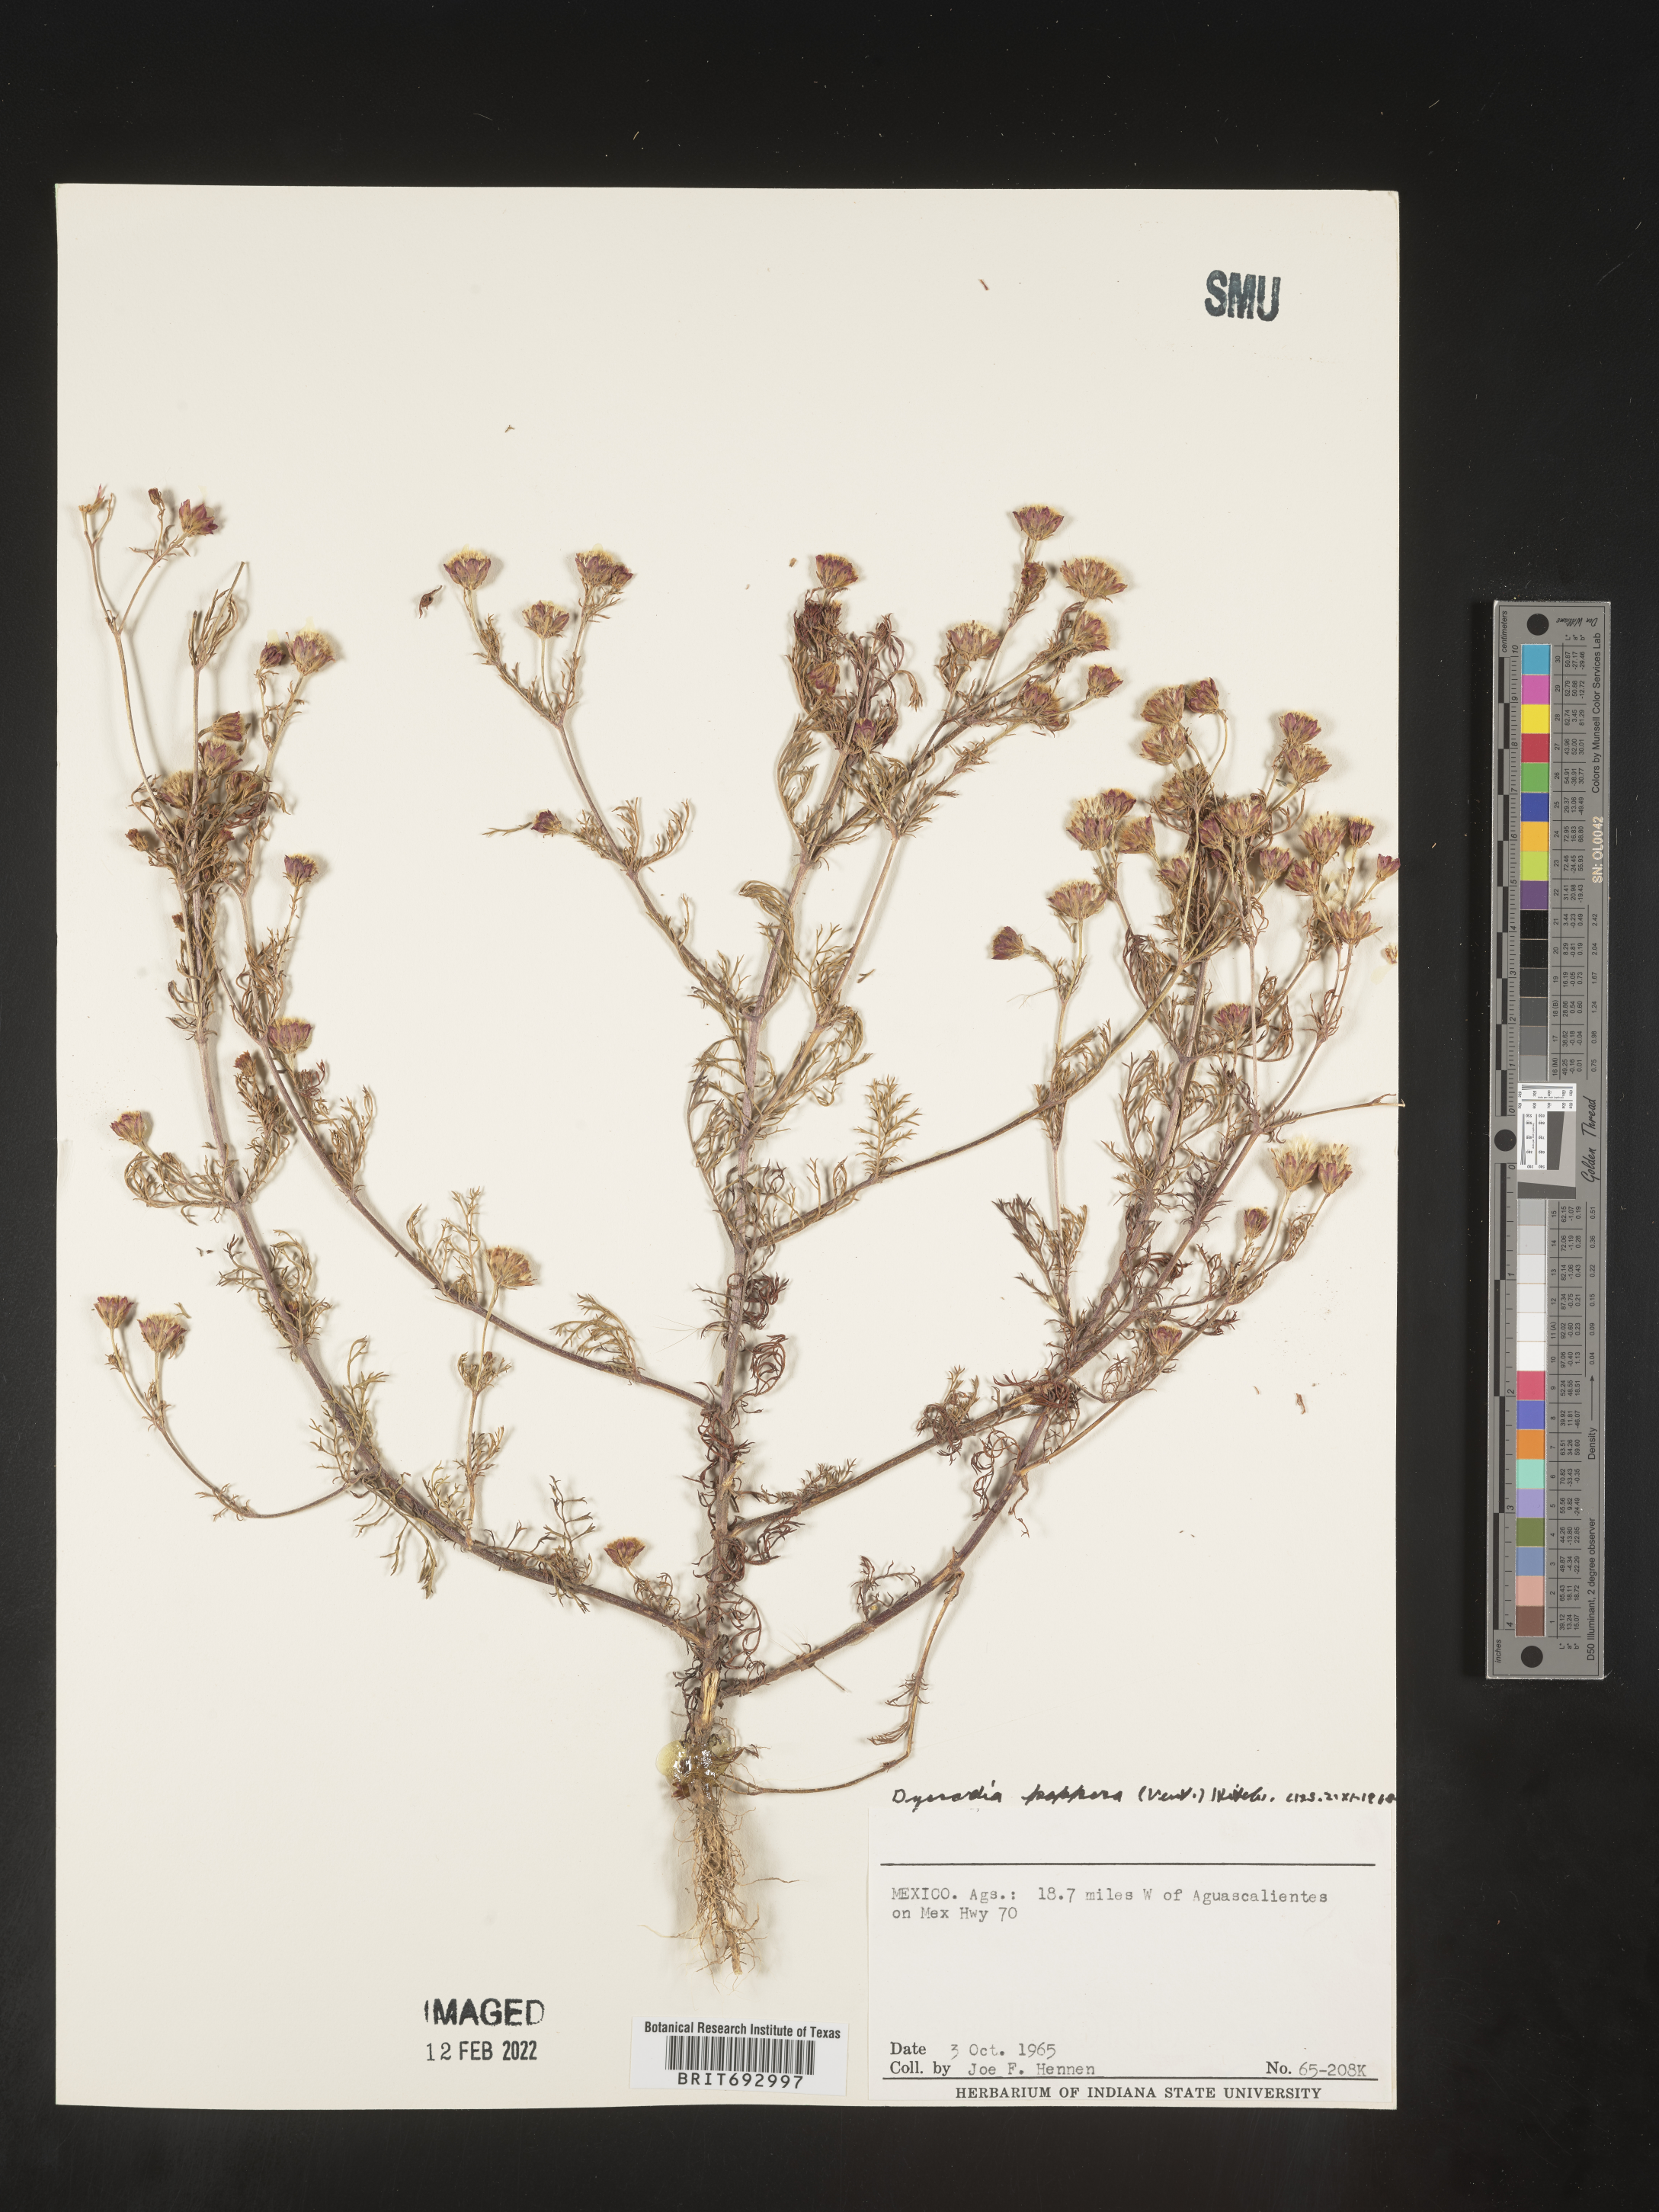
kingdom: Plantae
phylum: Tracheophyta
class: Magnoliopsida
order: Asterales
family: Asteraceae
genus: Dyssodia
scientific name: Dyssodia papposa
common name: Dogweed
